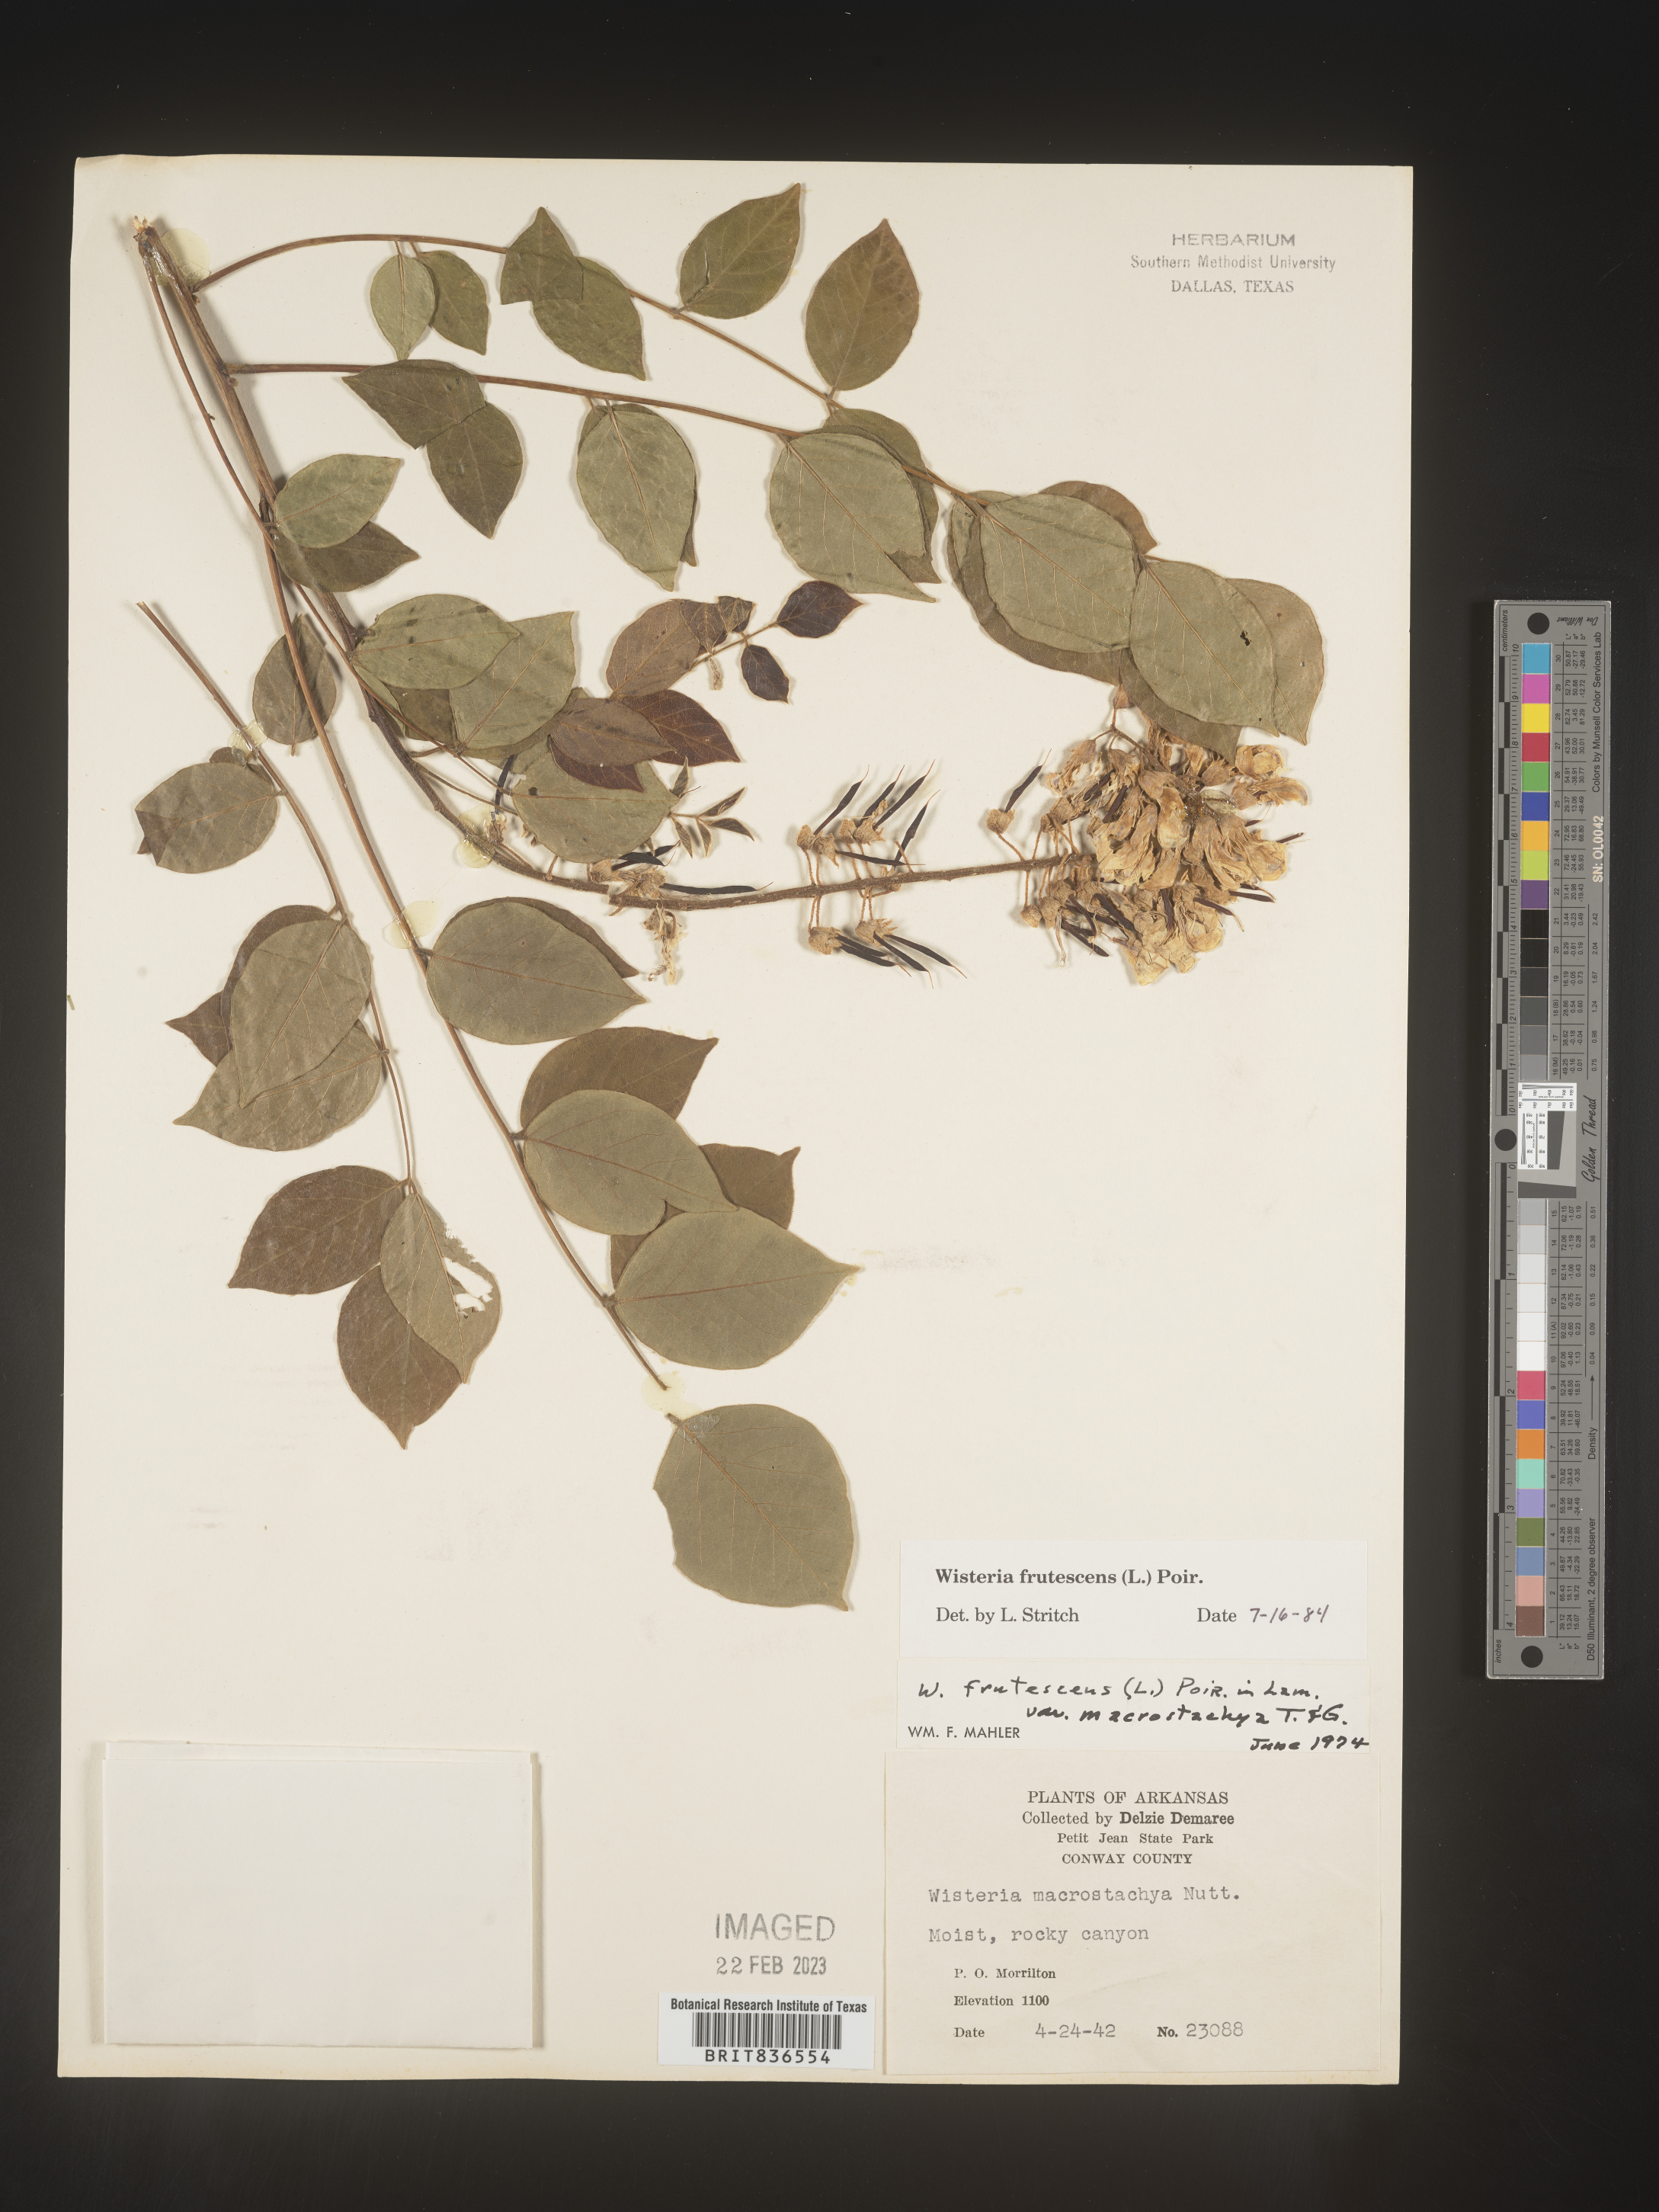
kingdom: Plantae
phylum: Tracheophyta
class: Magnoliopsida
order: Fabales
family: Fabaceae
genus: Wisteria
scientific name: Wisteria
